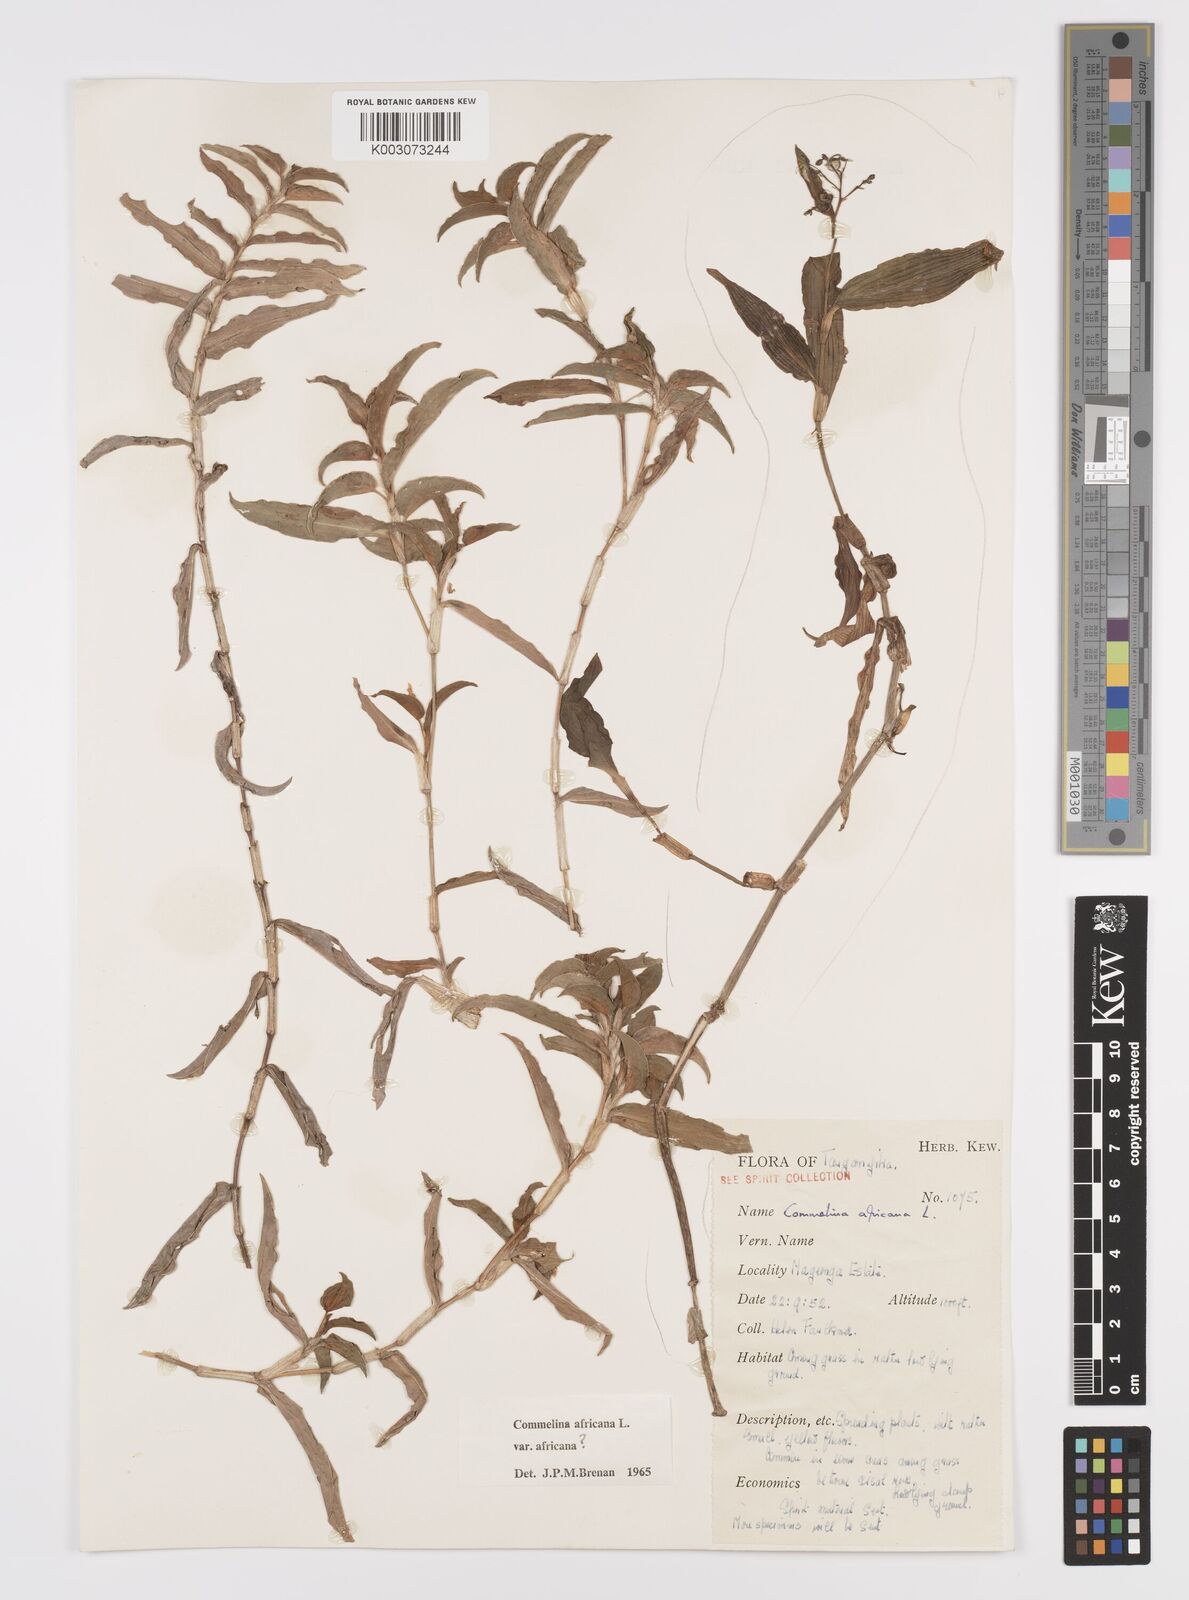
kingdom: Plantae
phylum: Tracheophyta
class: Liliopsida
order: Commelinales
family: Commelinaceae
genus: Commelina
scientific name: Commelina africana
